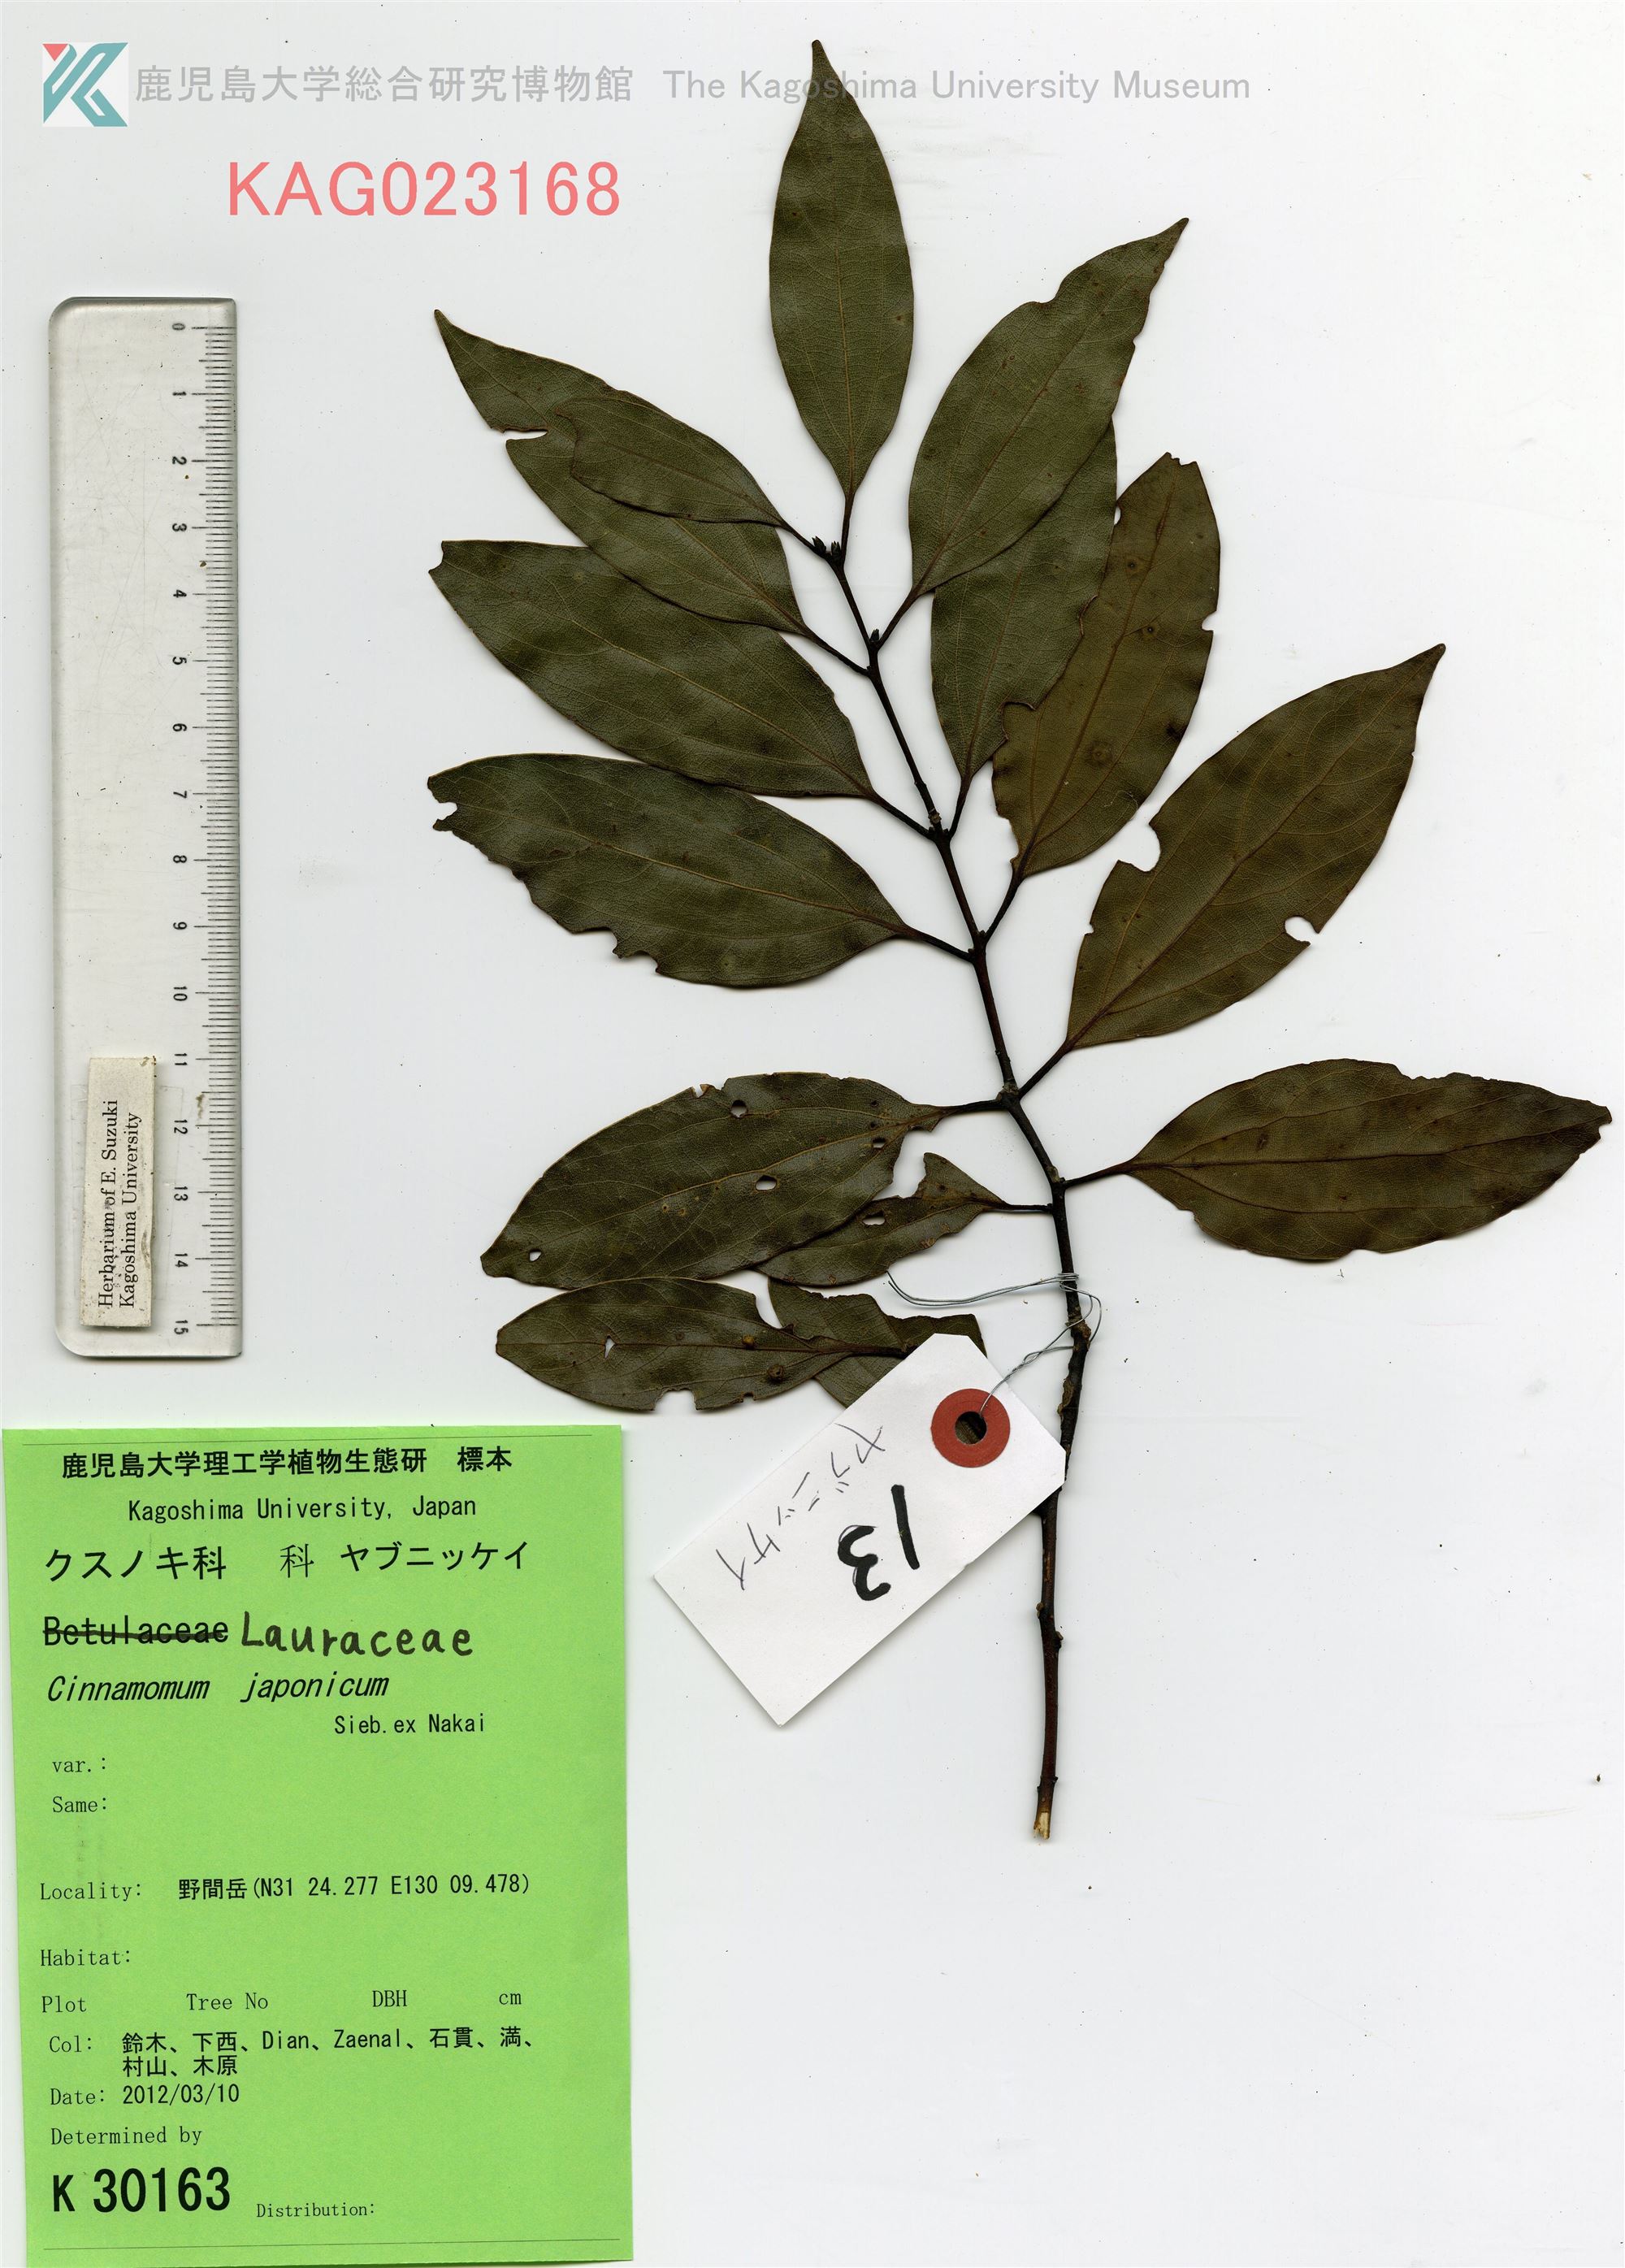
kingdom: Plantae
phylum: Tracheophyta
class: Magnoliopsida
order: Laurales
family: Lauraceae
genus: Cinnamomum
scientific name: Cinnamomum chekiangense
